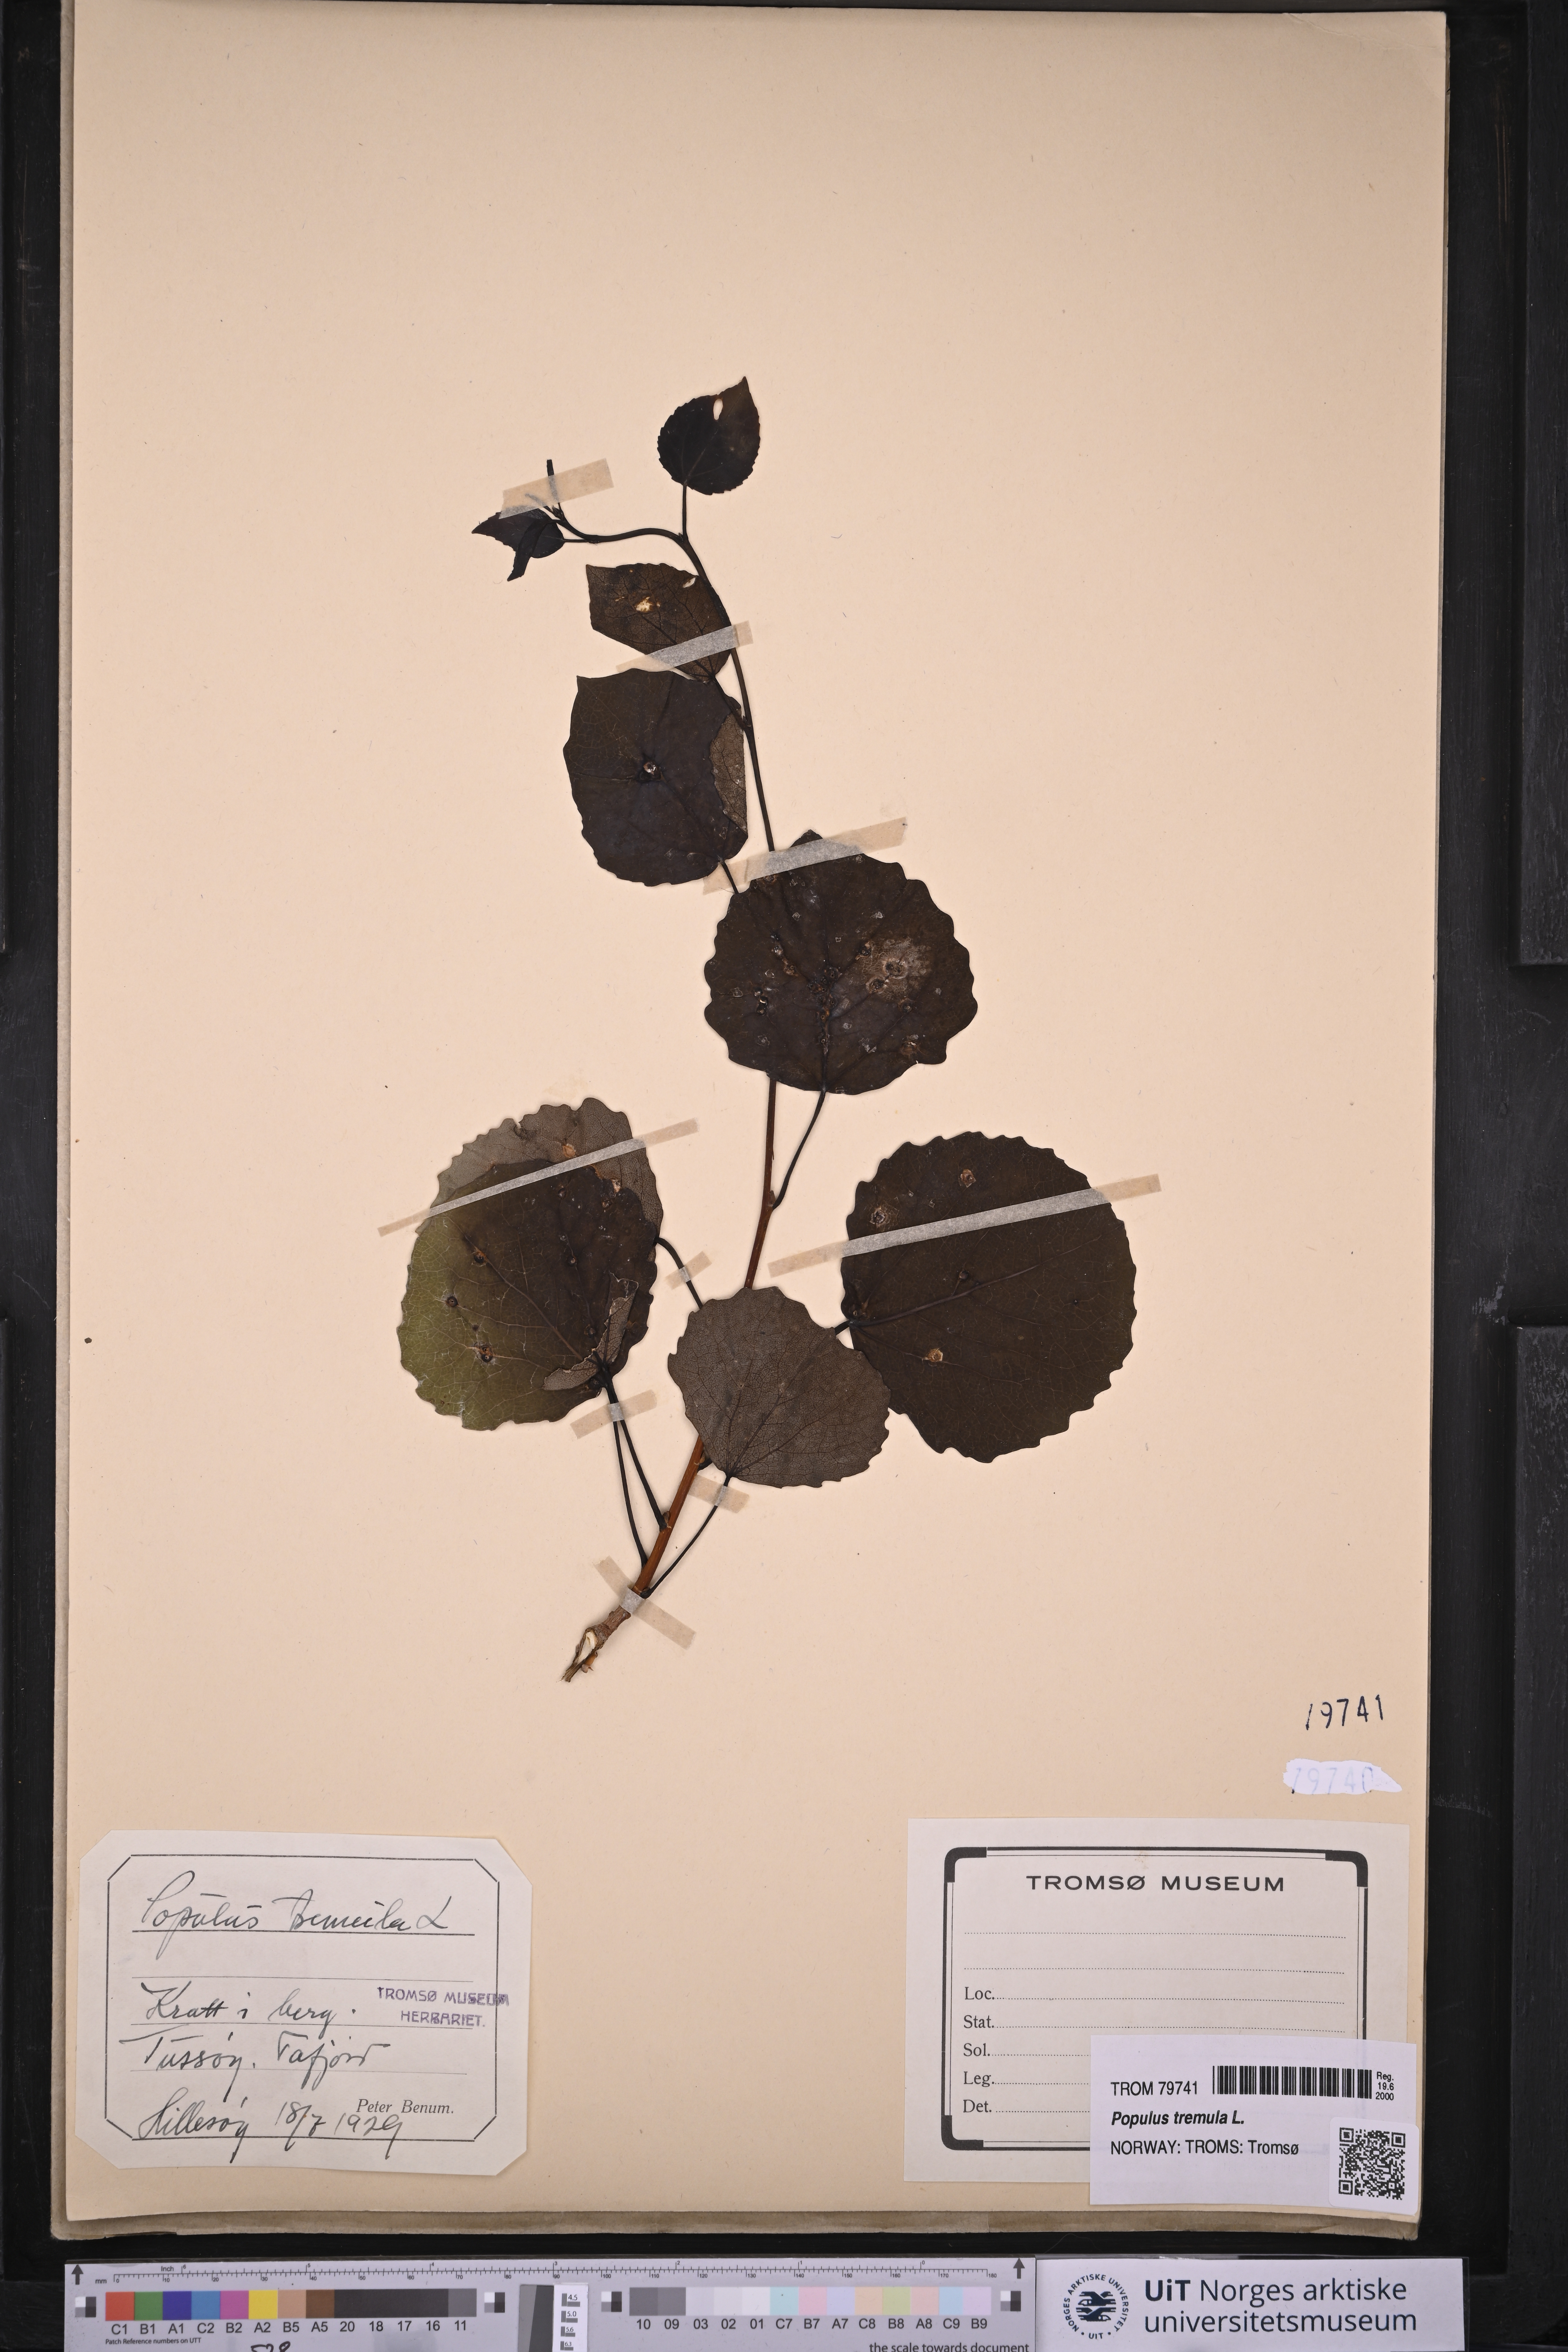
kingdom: Plantae
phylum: Tracheophyta
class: Magnoliopsida
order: Malpighiales
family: Salicaceae
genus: Populus
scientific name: Populus tremula
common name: European aspen
